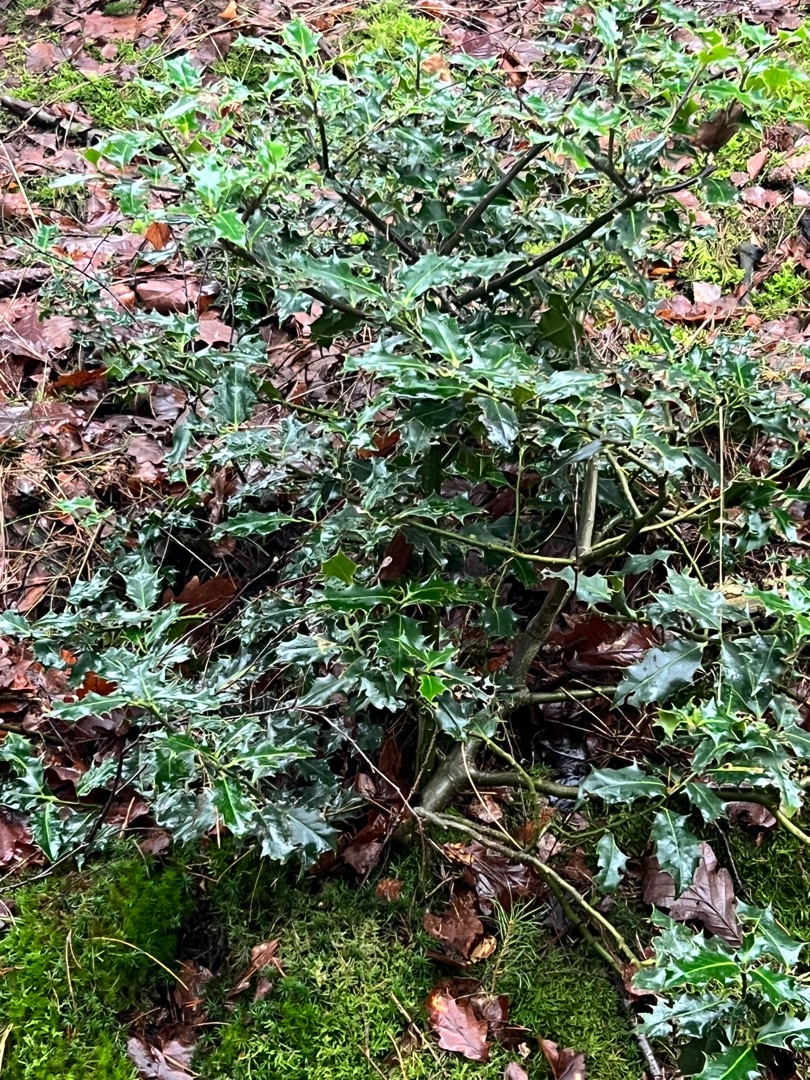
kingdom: Plantae
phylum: Tracheophyta
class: Magnoliopsida
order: Aquifoliales
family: Aquifoliaceae
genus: Ilex
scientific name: Ilex aquifolium
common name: Kristtorn
